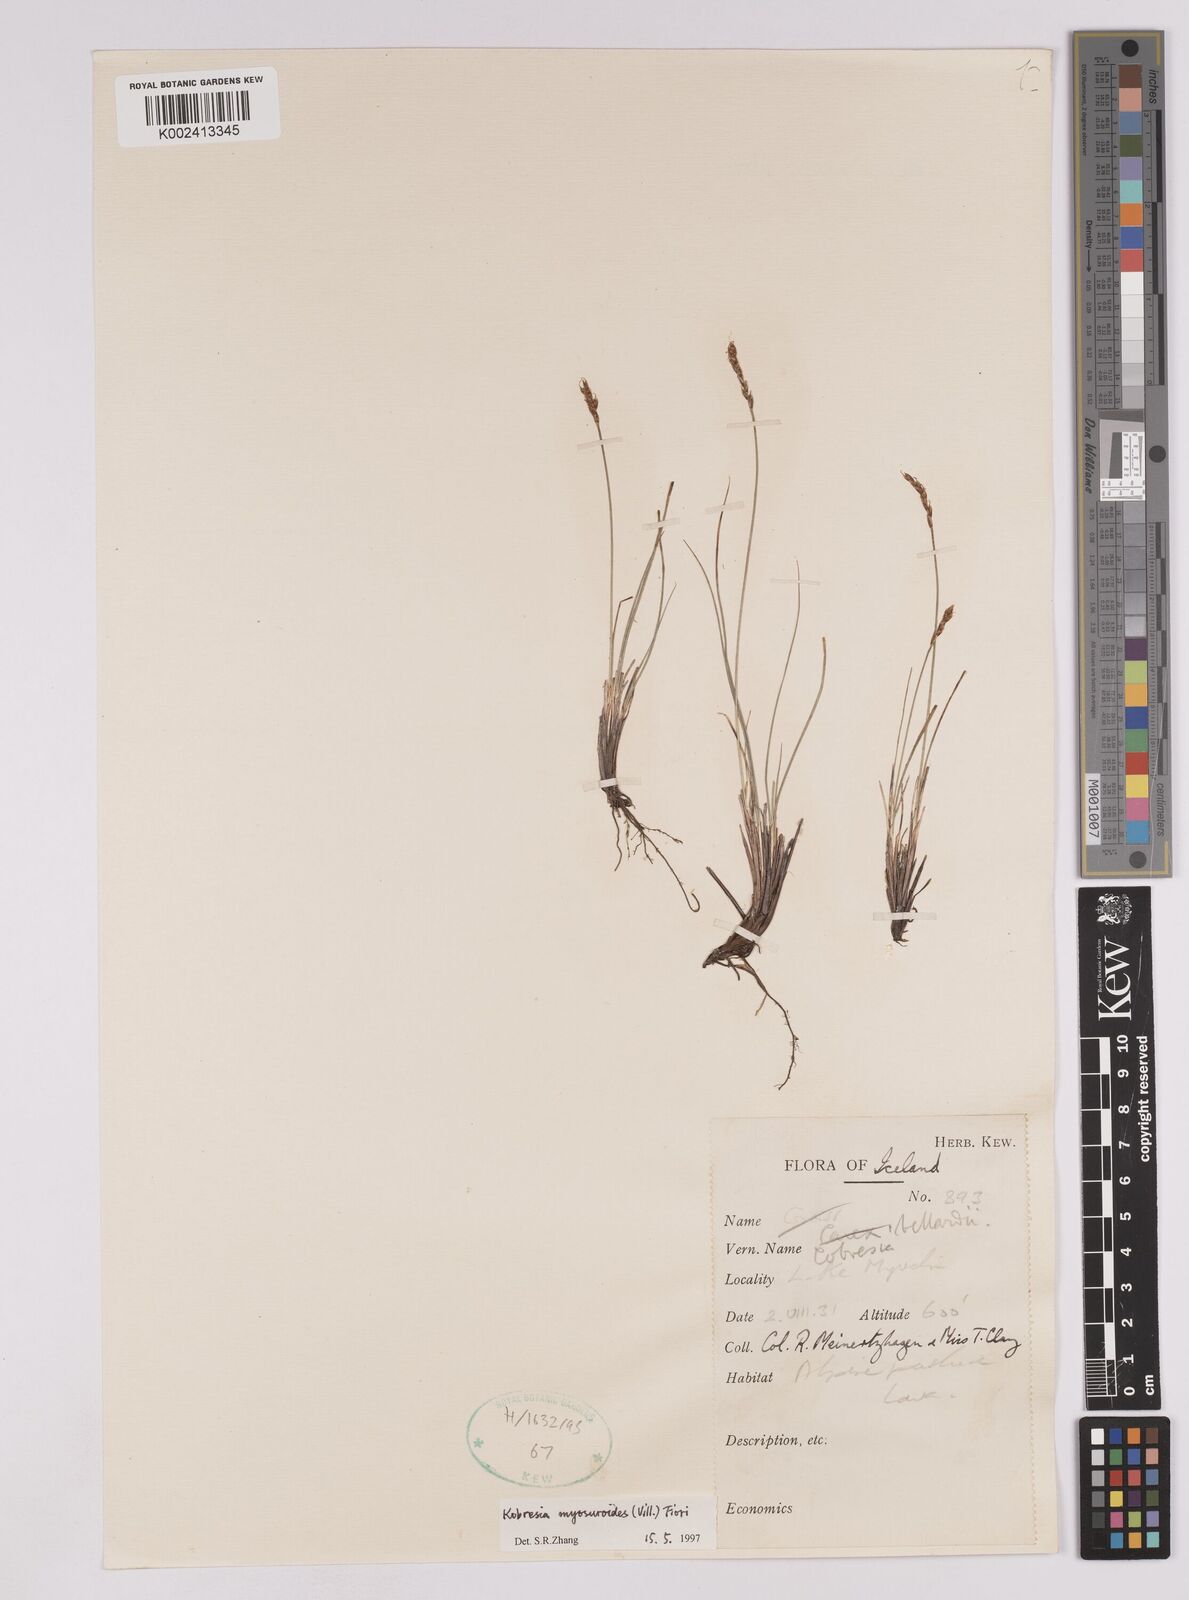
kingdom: Plantae
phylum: Tracheophyta
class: Liliopsida
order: Poales
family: Cyperaceae
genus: Carex
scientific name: Carex myosuroides
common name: Bellard's bog sedge
